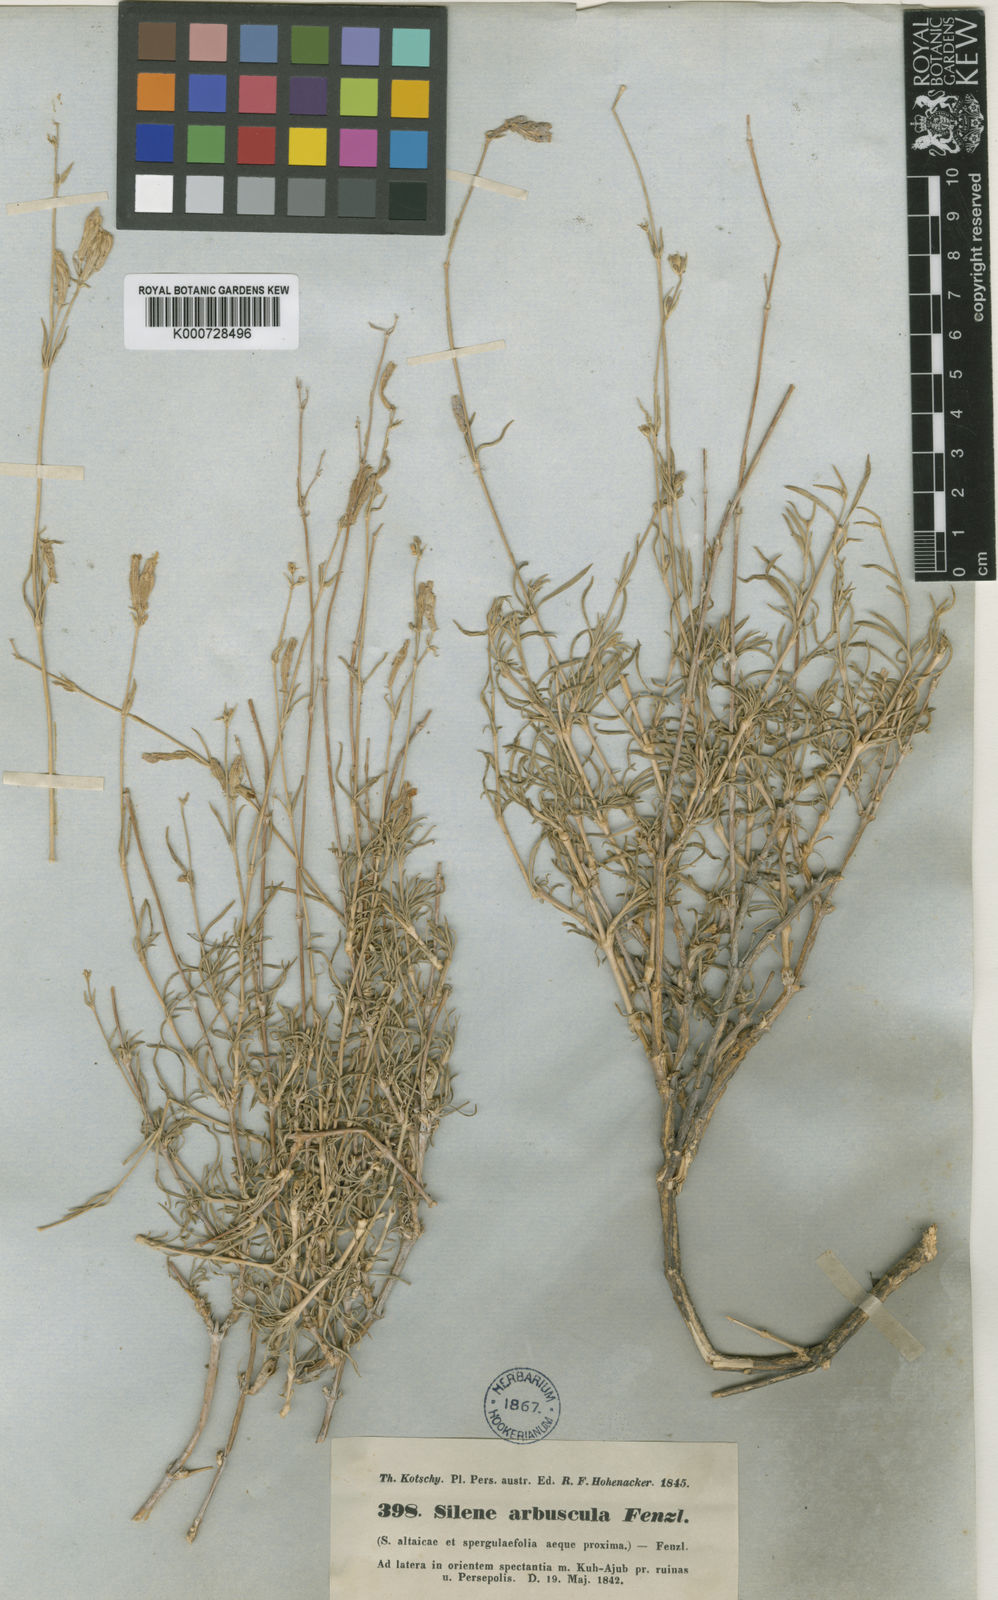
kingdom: Plantae
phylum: Tracheophyta
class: Magnoliopsida
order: Caryophyllales
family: Caryophyllaceae
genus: Silene
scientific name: Silene spergulifolia
